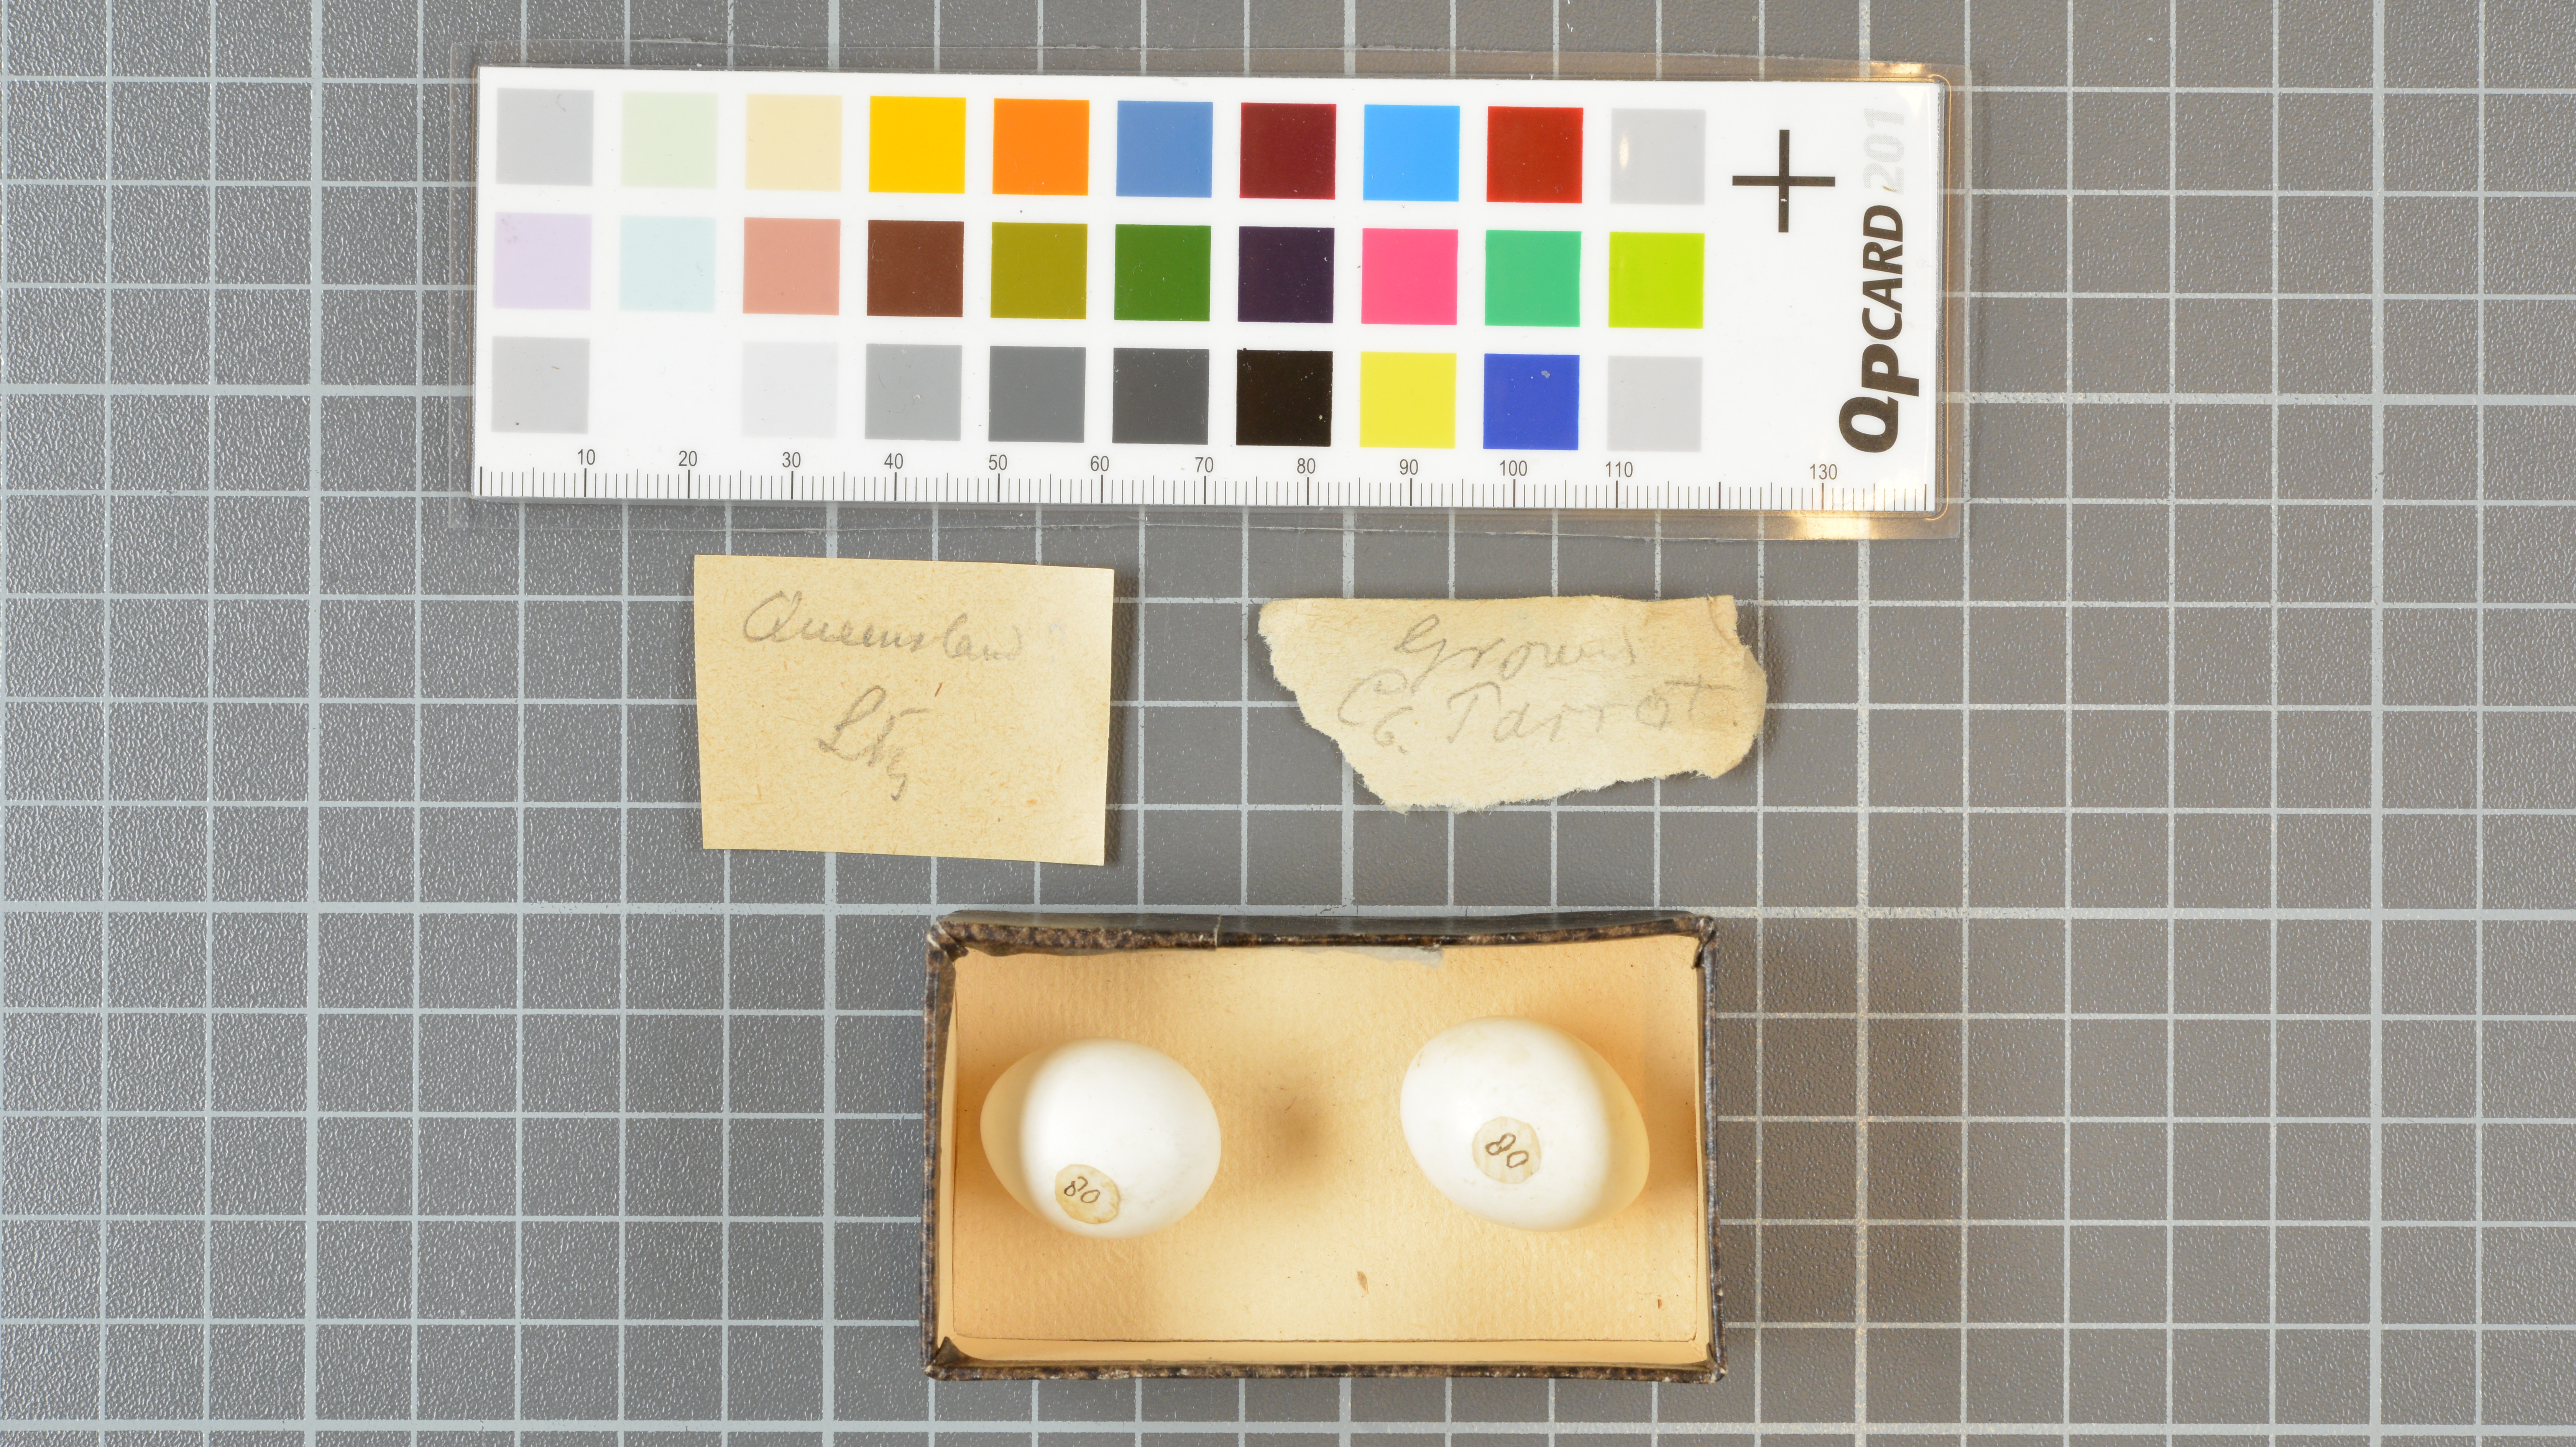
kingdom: Animalia
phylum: Chordata
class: Aves
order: Psittaciformes
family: Psittacidae
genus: Pezoporus
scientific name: Pezoporus wallicus
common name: Ground parrot
